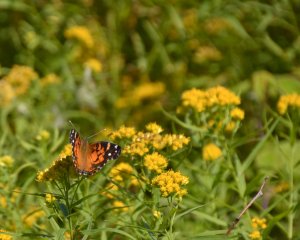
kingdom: Animalia
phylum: Arthropoda
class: Insecta
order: Lepidoptera
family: Nymphalidae
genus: Vanessa
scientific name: Vanessa virginiensis
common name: American Lady
